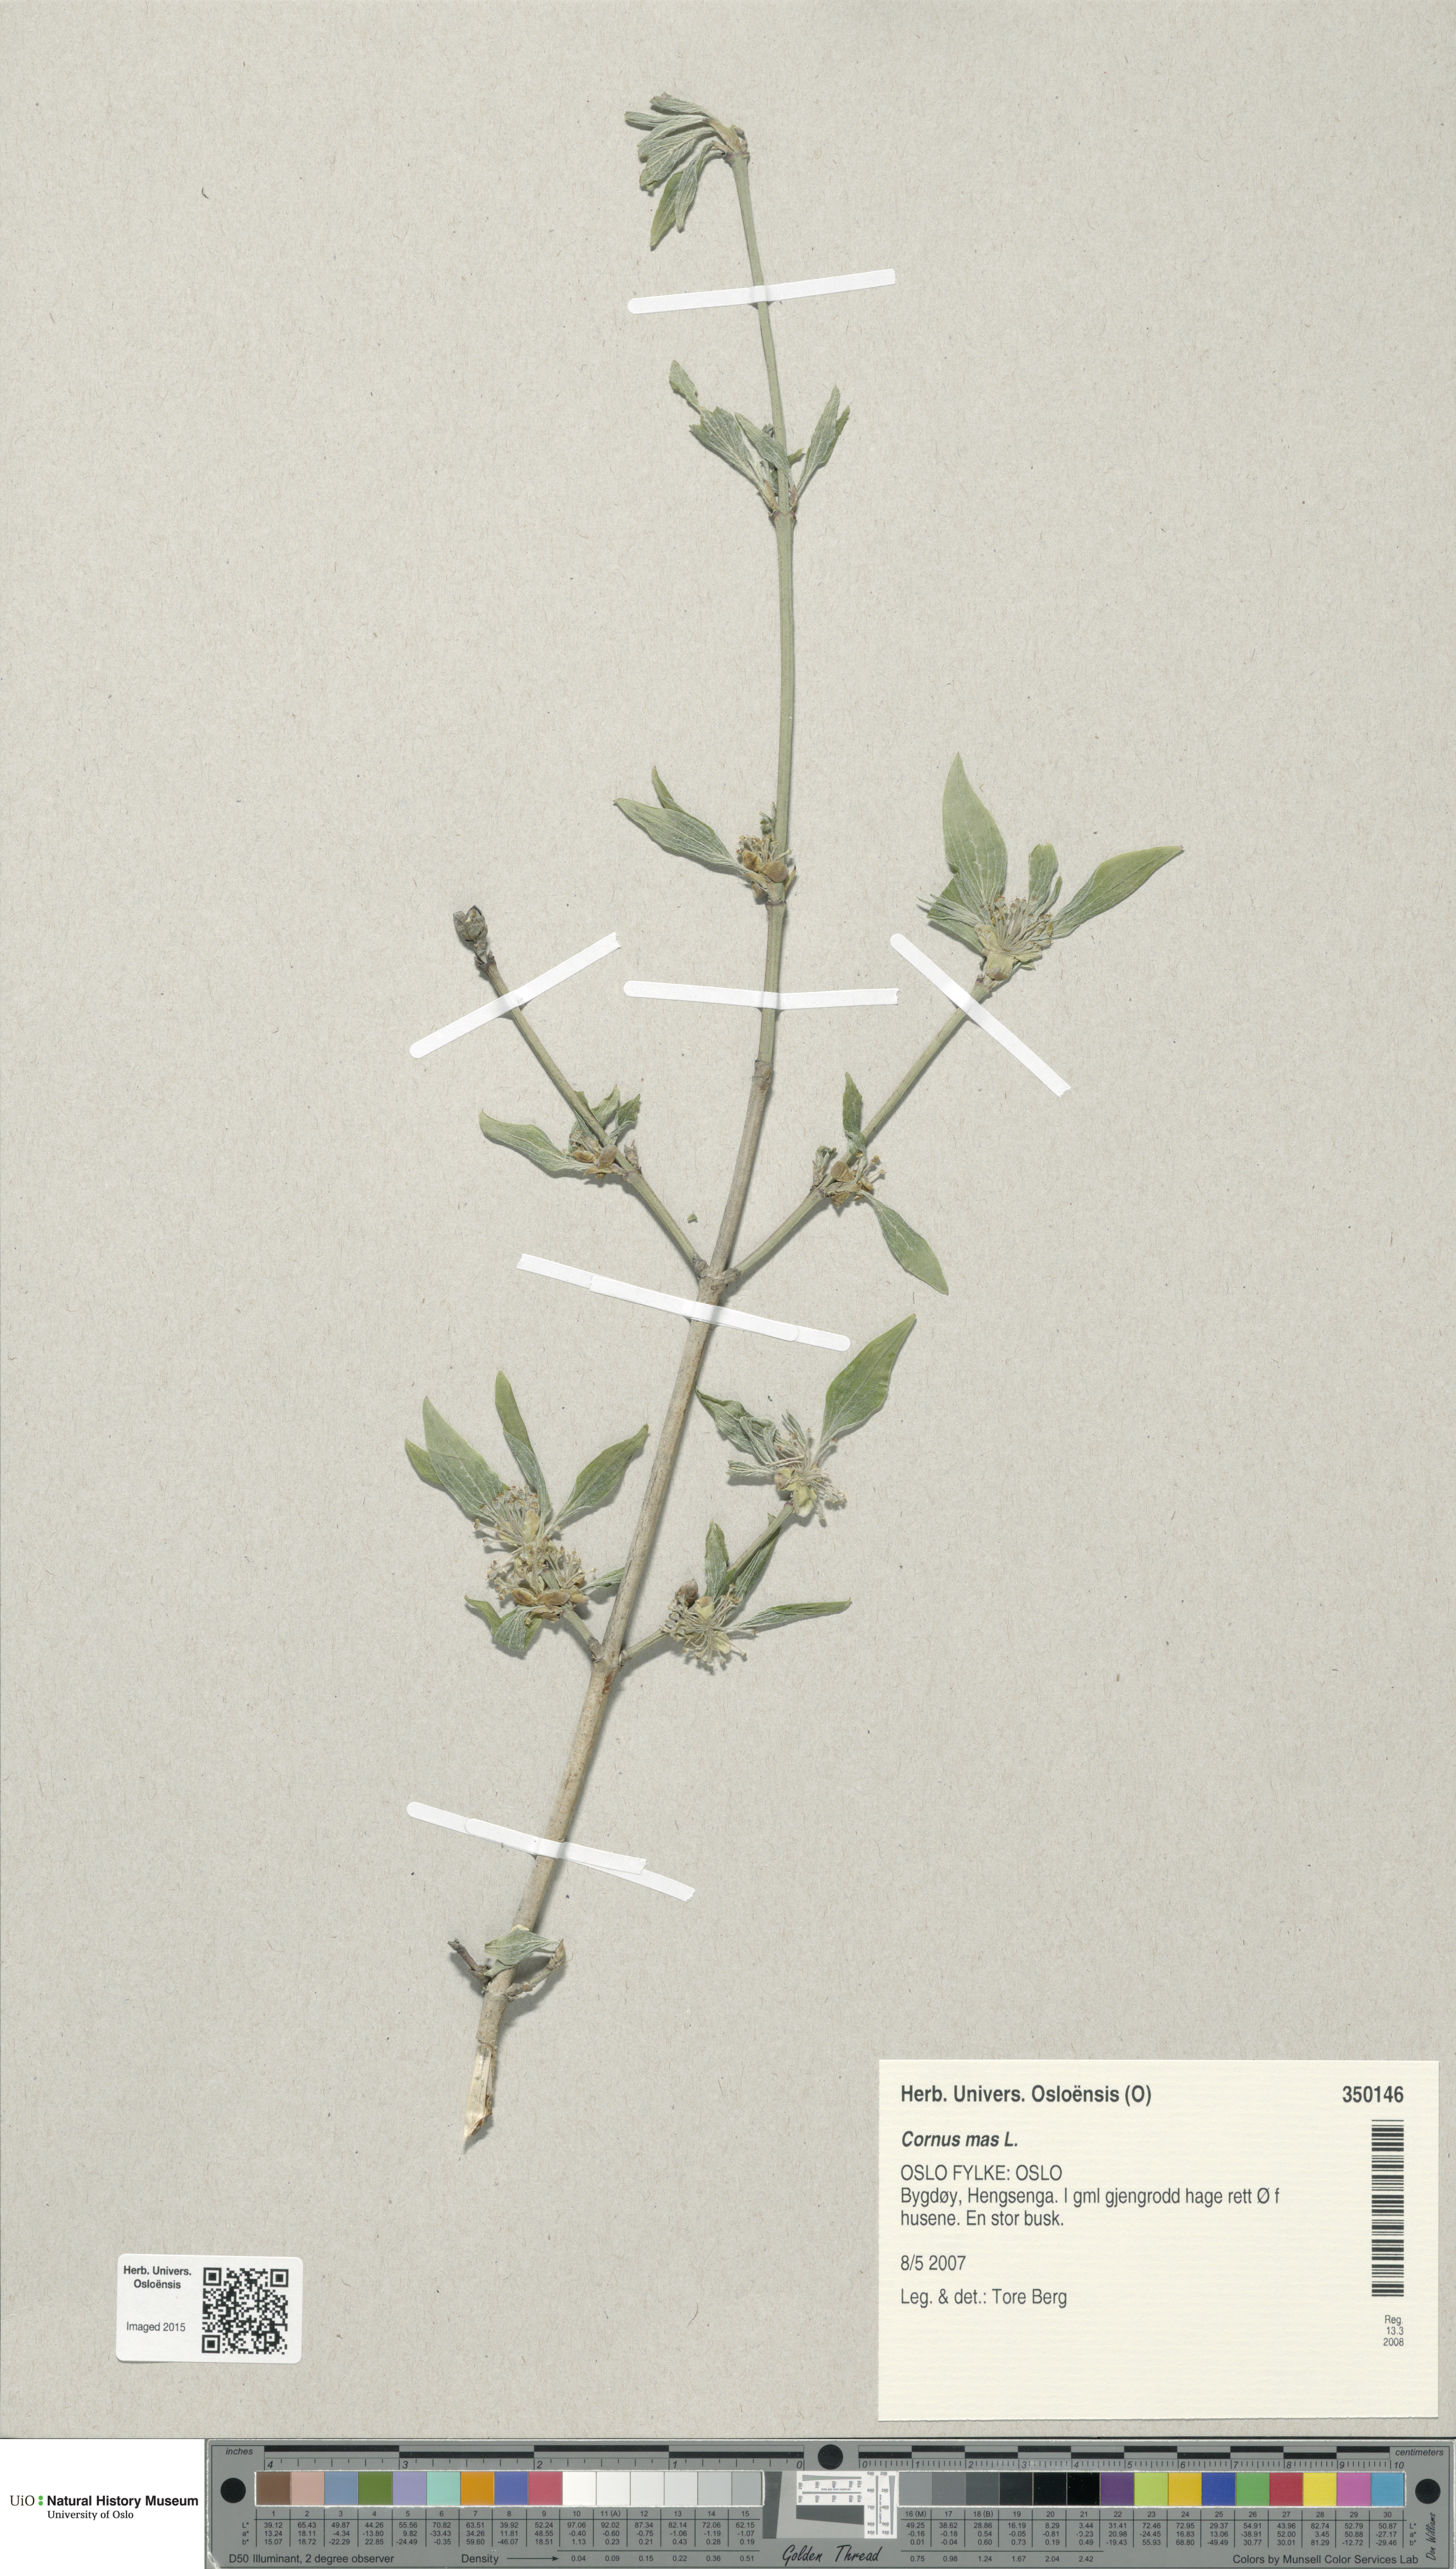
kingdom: Plantae
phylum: Tracheophyta
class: Magnoliopsida
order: Cornales
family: Cornaceae
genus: Cornus
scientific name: Cornus mas
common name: Cornelian-cherry
